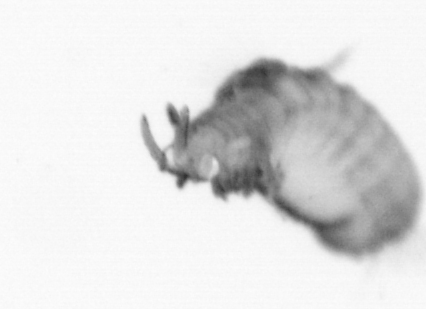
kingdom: Animalia
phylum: Annelida
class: Polychaeta
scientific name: Polychaeta
